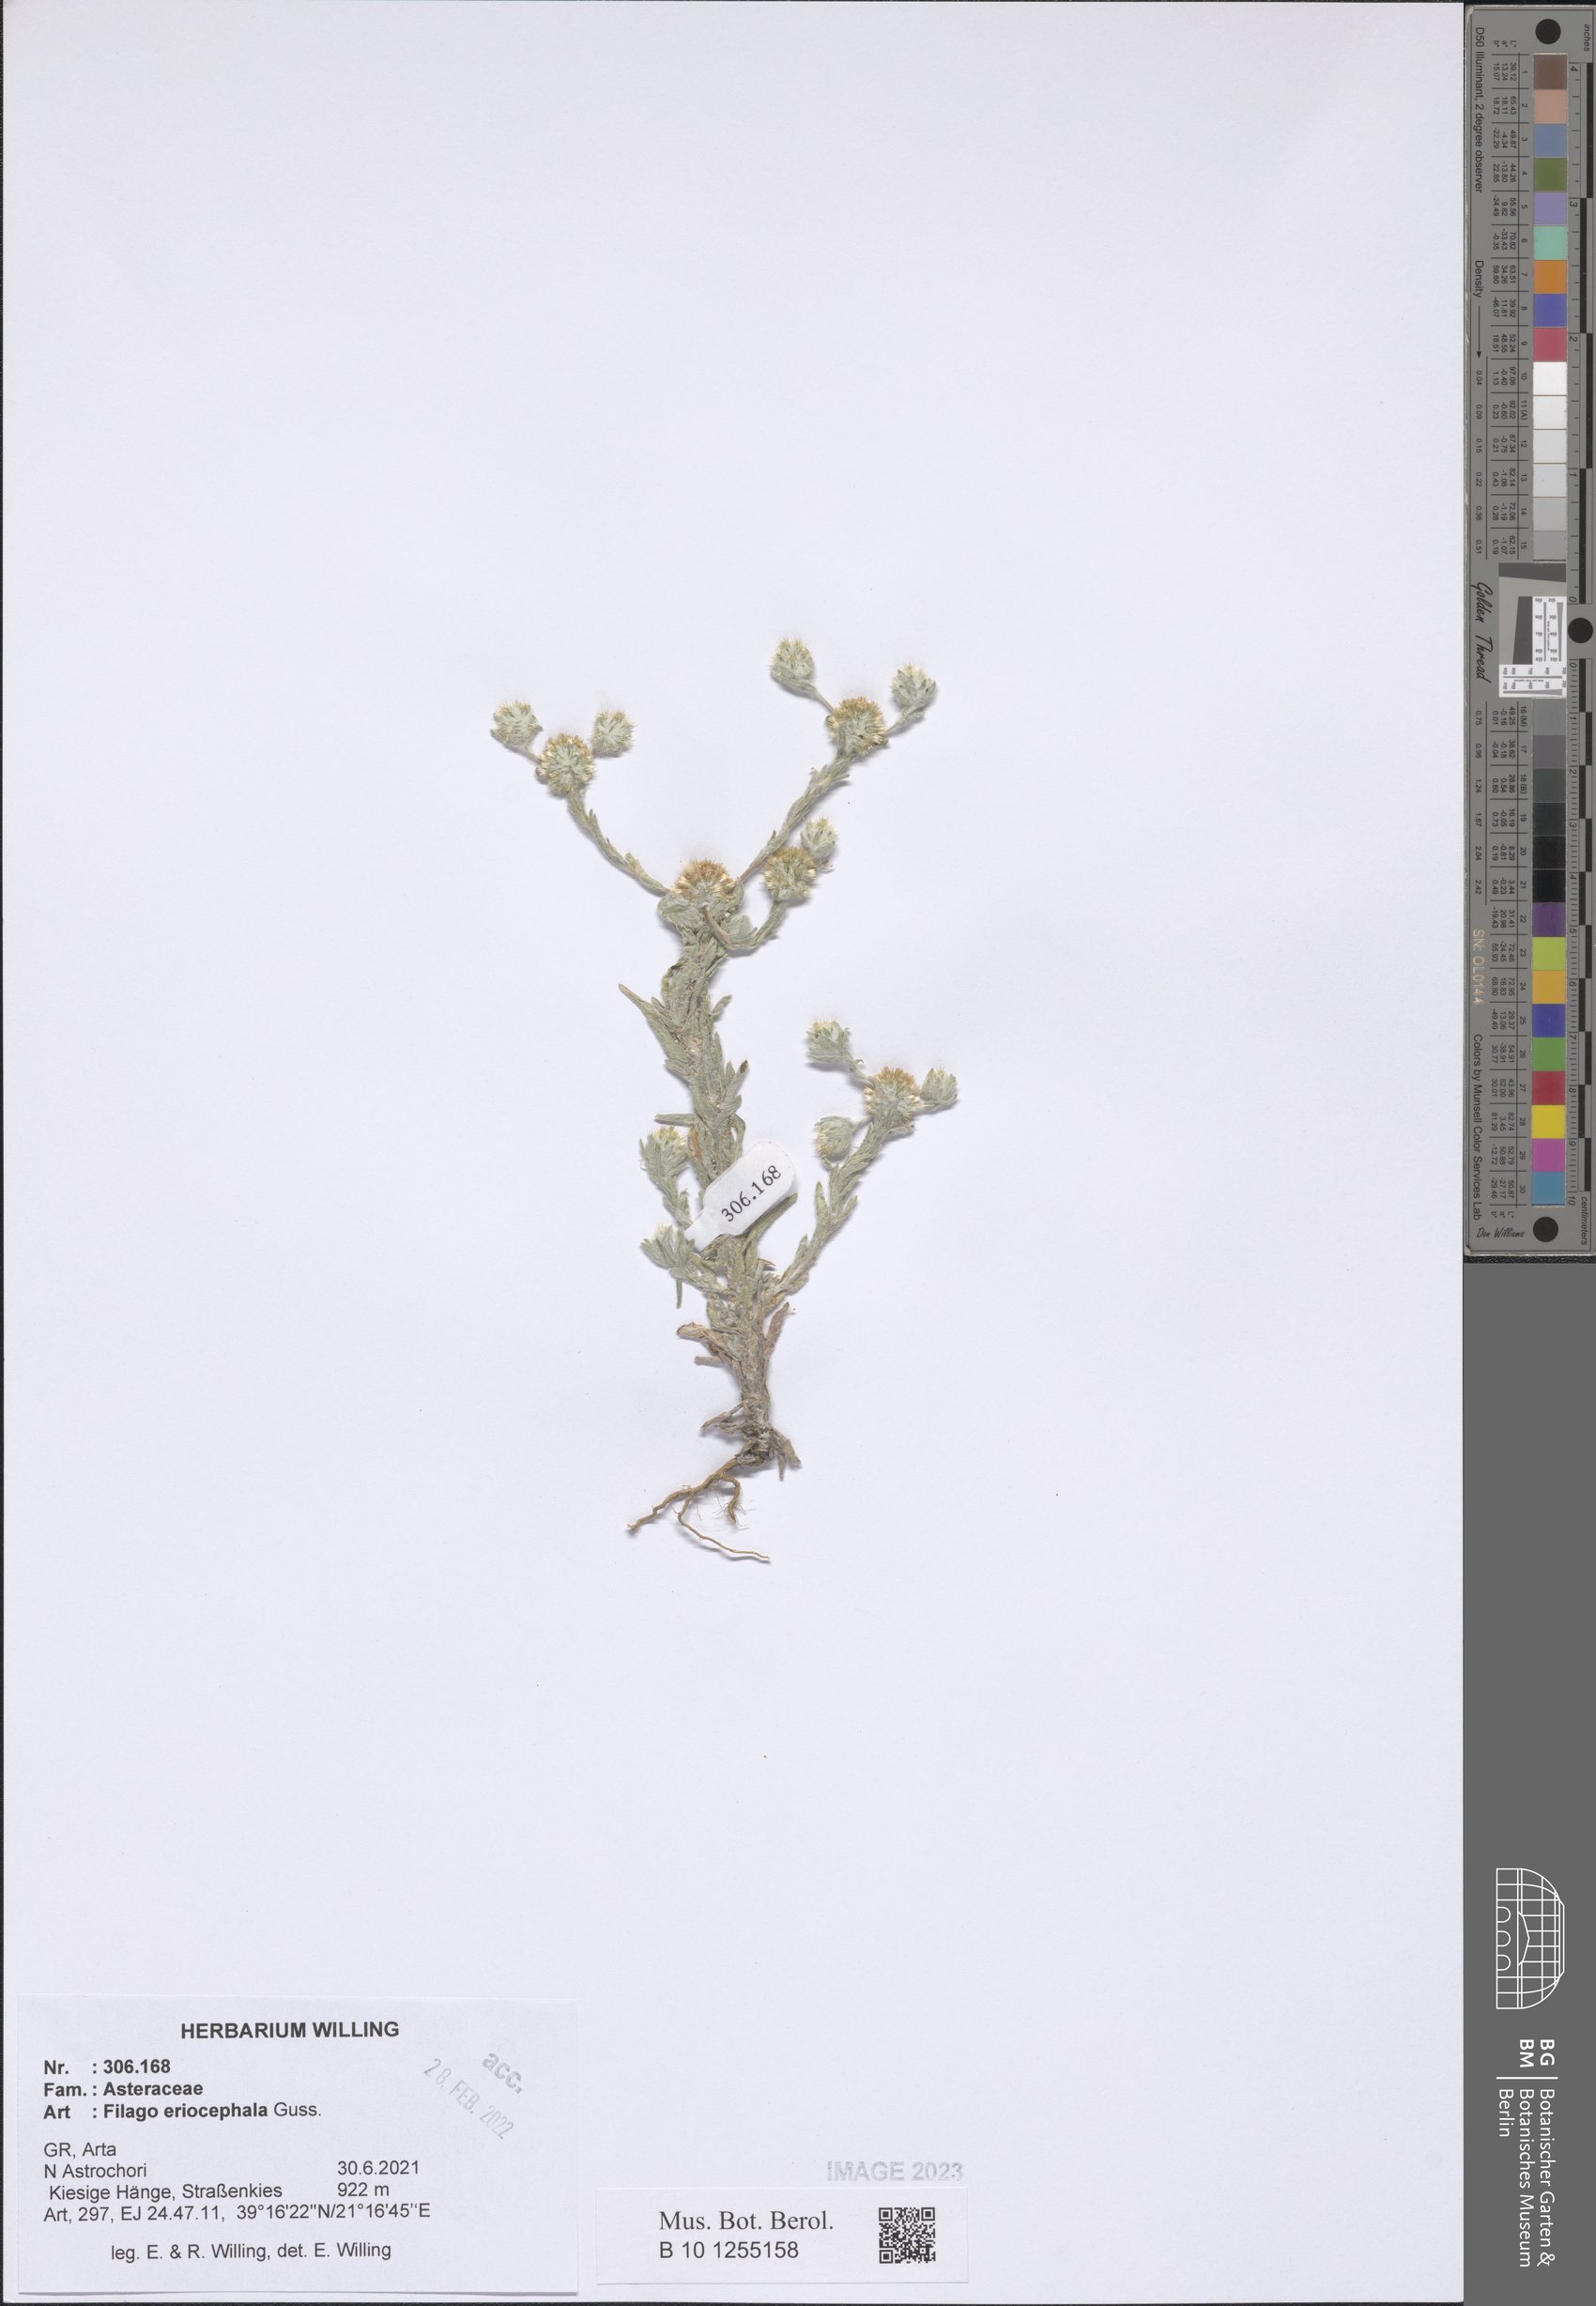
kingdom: Plantae
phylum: Tracheophyta
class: Magnoliopsida
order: Asterales
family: Asteraceae
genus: Filago
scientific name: Filago eriocephala
